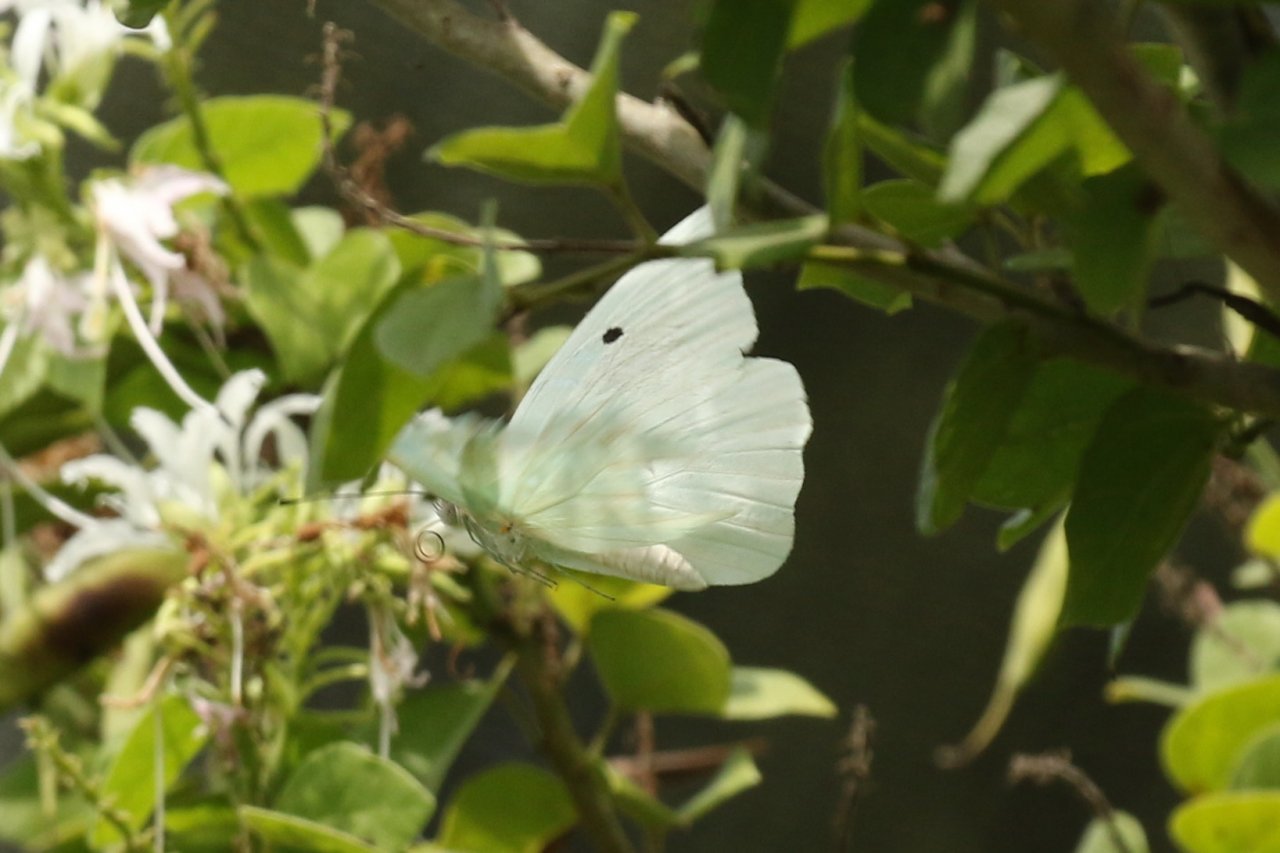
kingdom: Animalia
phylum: Arthropoda
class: Insecta
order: Lepidoptera
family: Pieridae
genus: Ganyra
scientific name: Ganyra josephina
